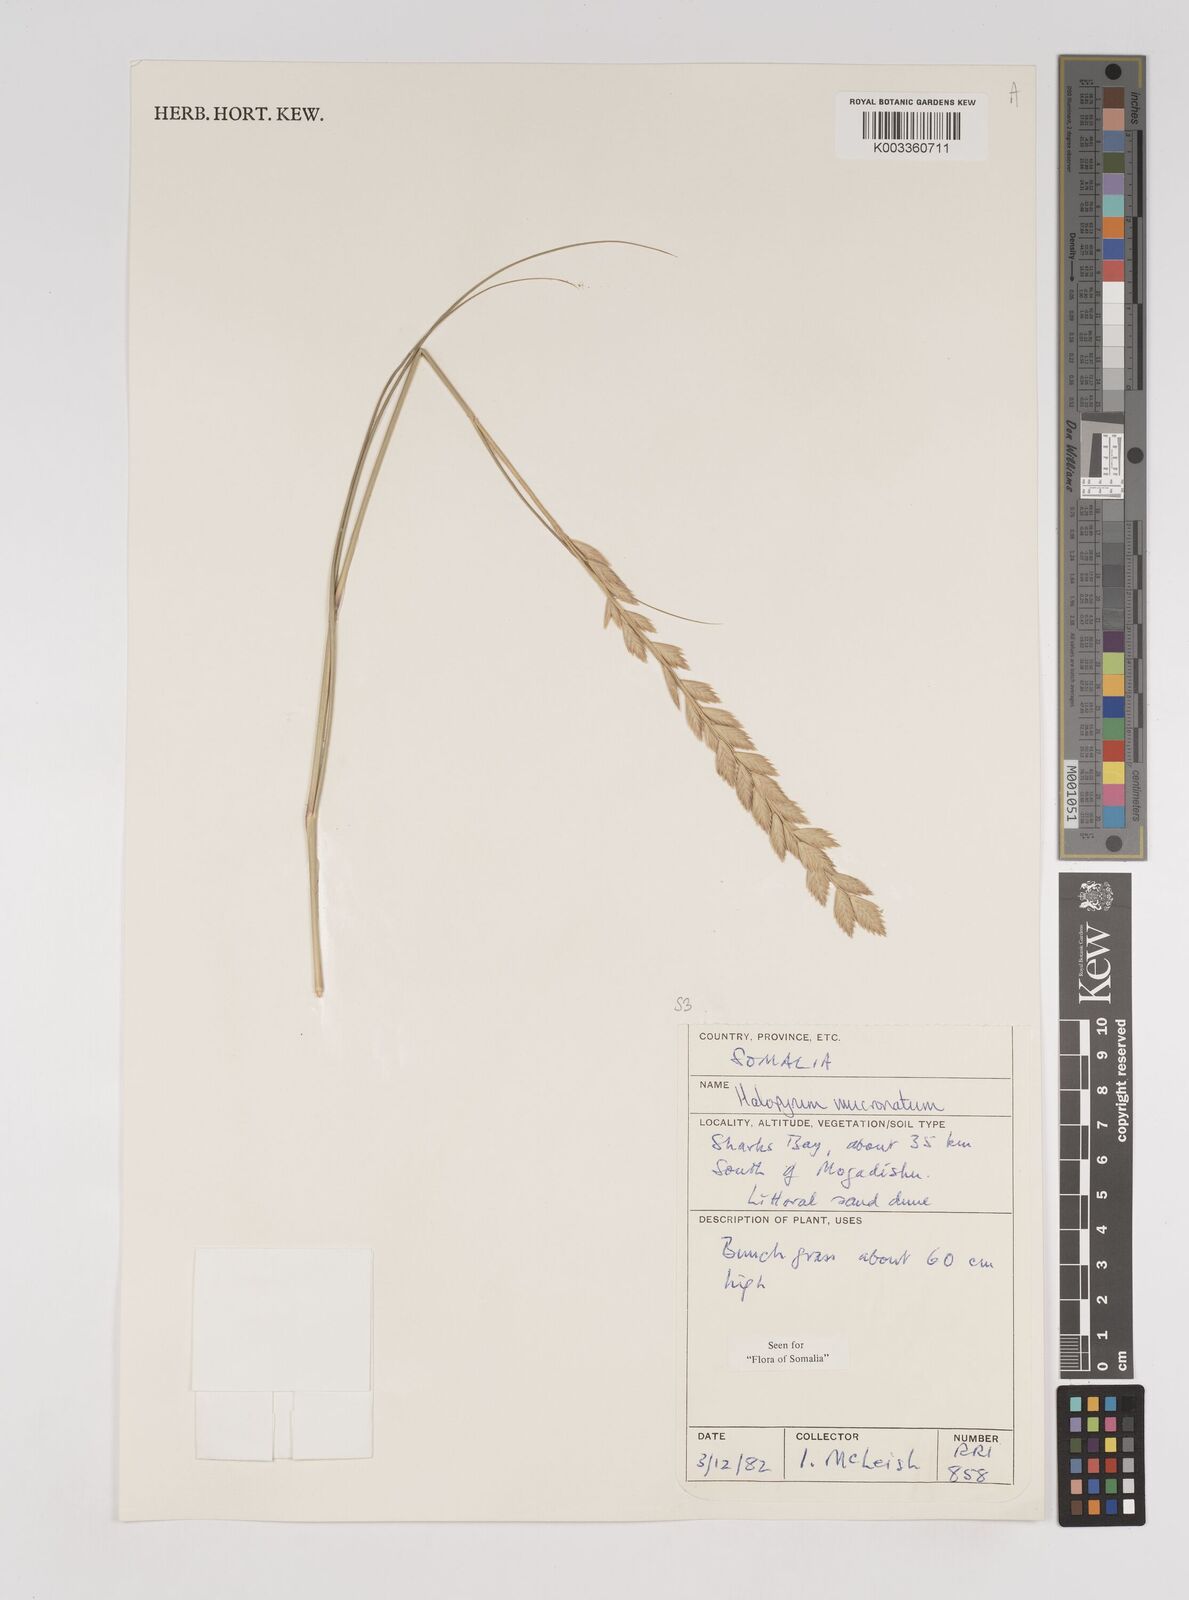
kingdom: Plantae
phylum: Tracheophyta
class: Liliopsida
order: Poales
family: Poaceae
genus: Halopyrum
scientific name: Halopyrum mucronatum
